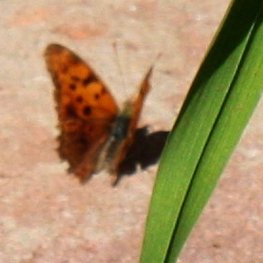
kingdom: Animalia
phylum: Arthropoda
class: Insecta
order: Lepidoptera
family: Nymphalidae
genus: Polygonia
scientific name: Polygonia interrogationis
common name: Question Mark
